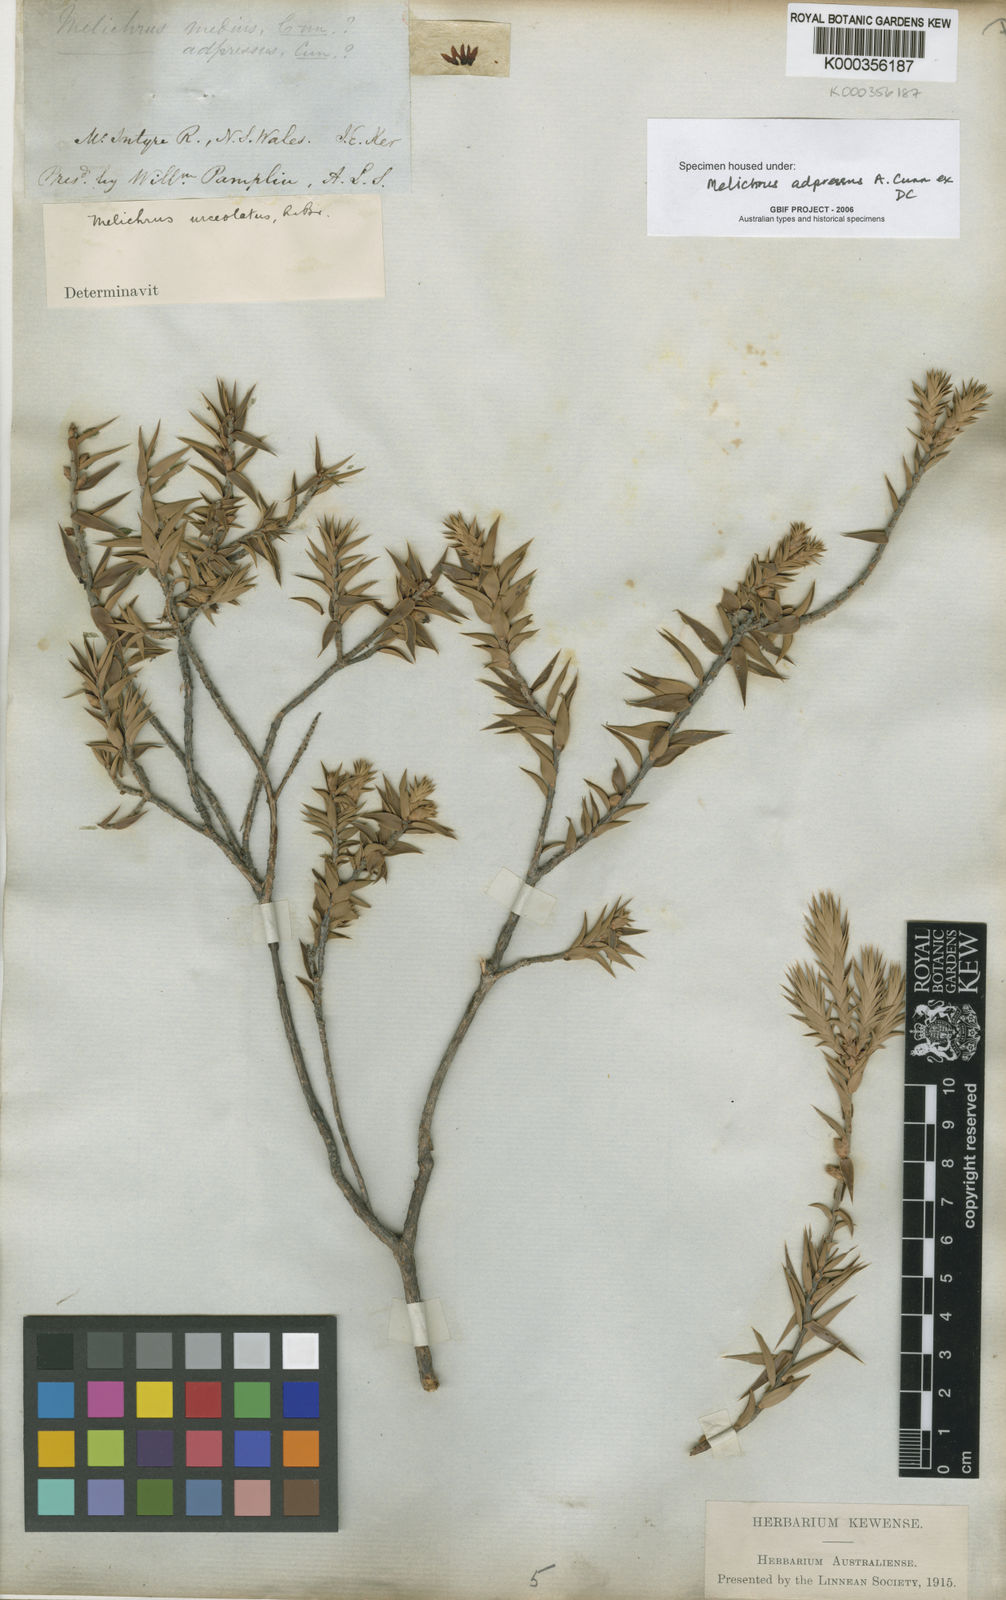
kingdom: Plantae
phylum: Tracheophyta
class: Magnoliopsida
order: Ericales
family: Ericaceae
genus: Melichrus
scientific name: Melichrus adpressus
